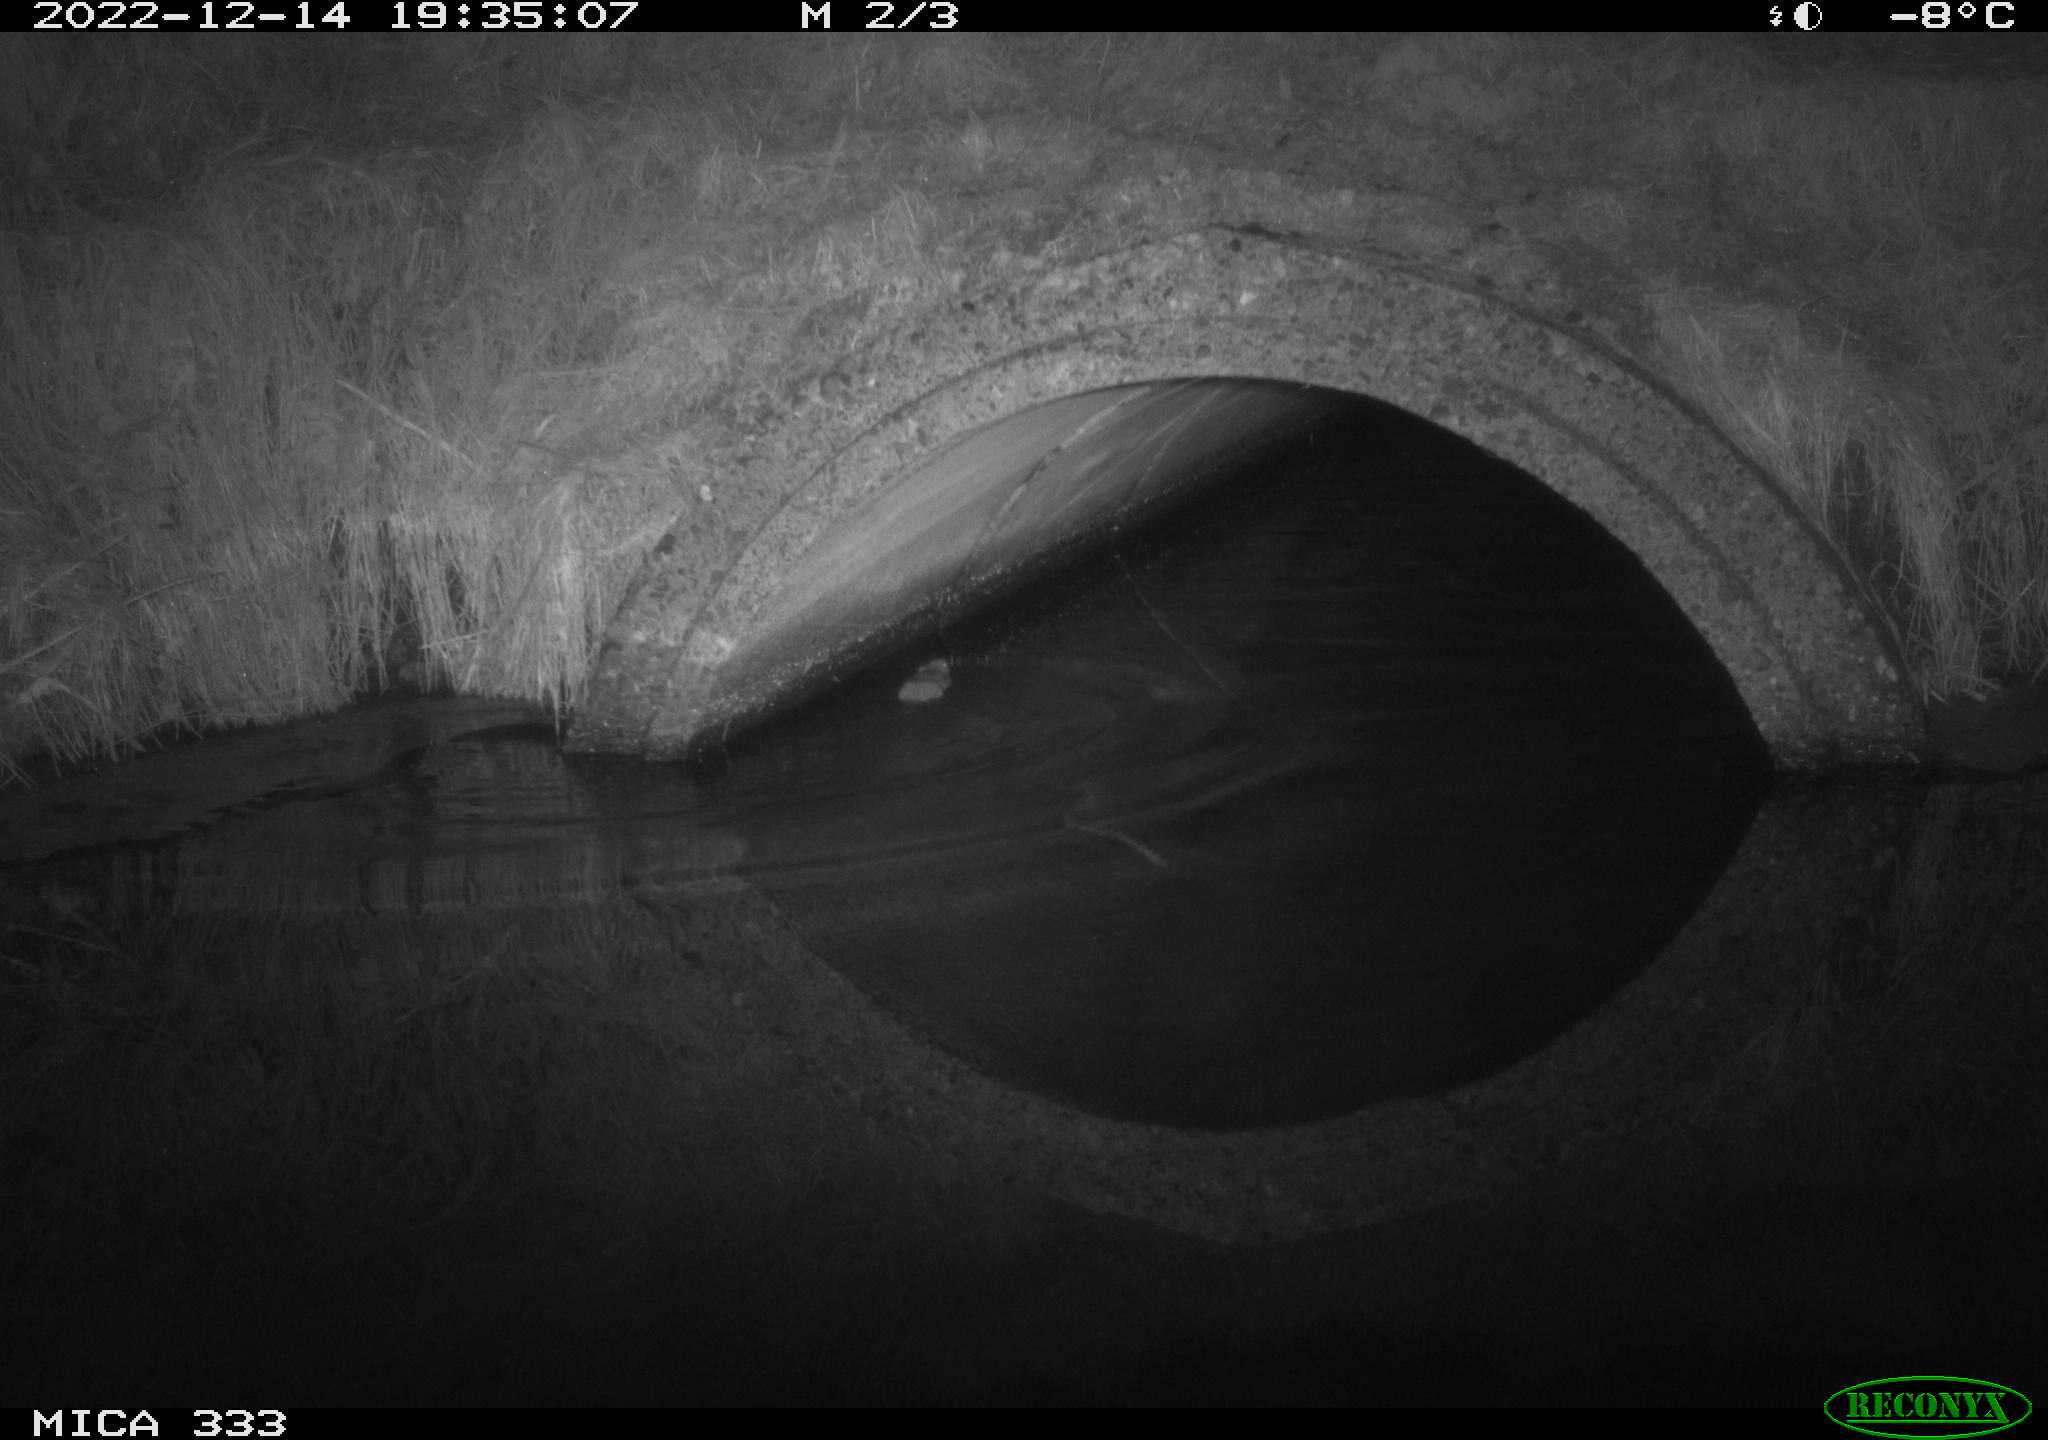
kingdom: Animalia
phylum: Chordata
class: Mammalia
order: Rodentia
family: Muridae
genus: Rattus
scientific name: Rattus norvegicus
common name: Brown rat
